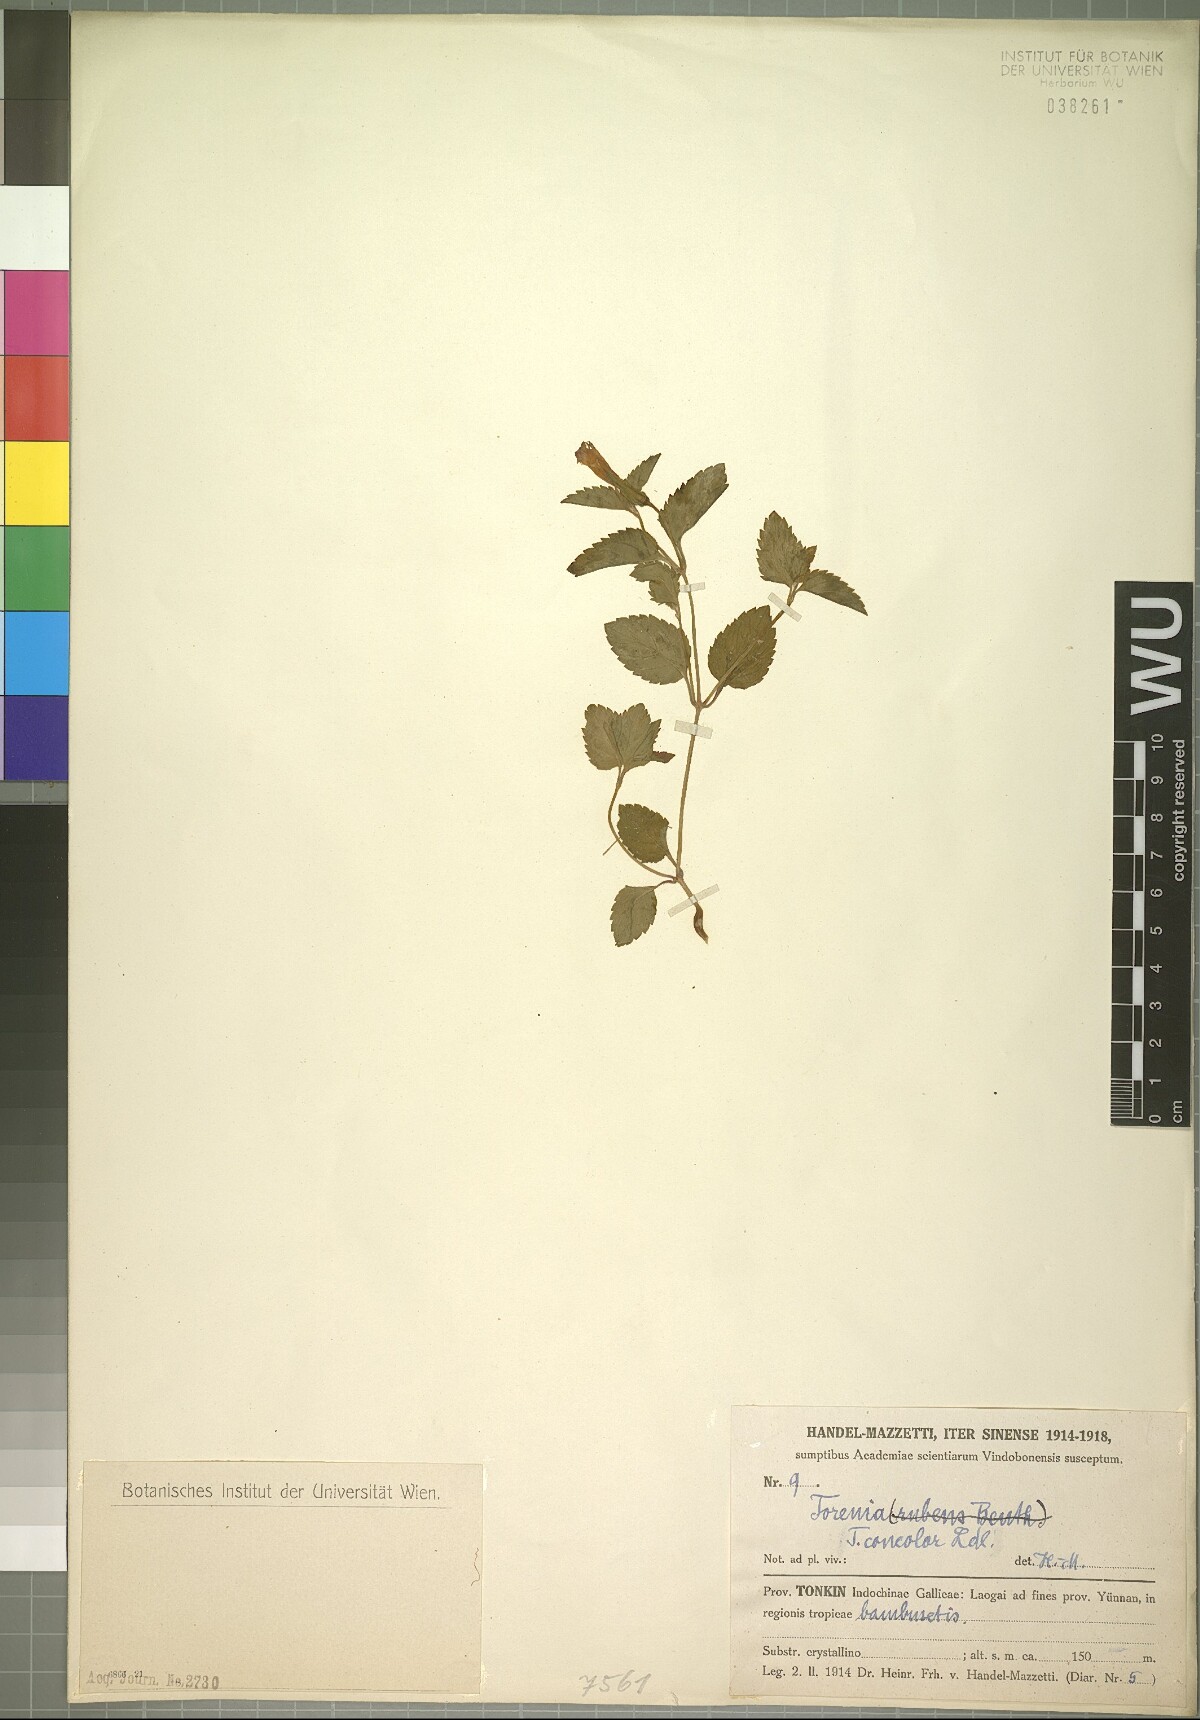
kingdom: Plantae
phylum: Tracheophyta
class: Magnoliopsida
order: Lamiales
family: Linderniaceae
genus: Torenia
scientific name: Torenia concolor
